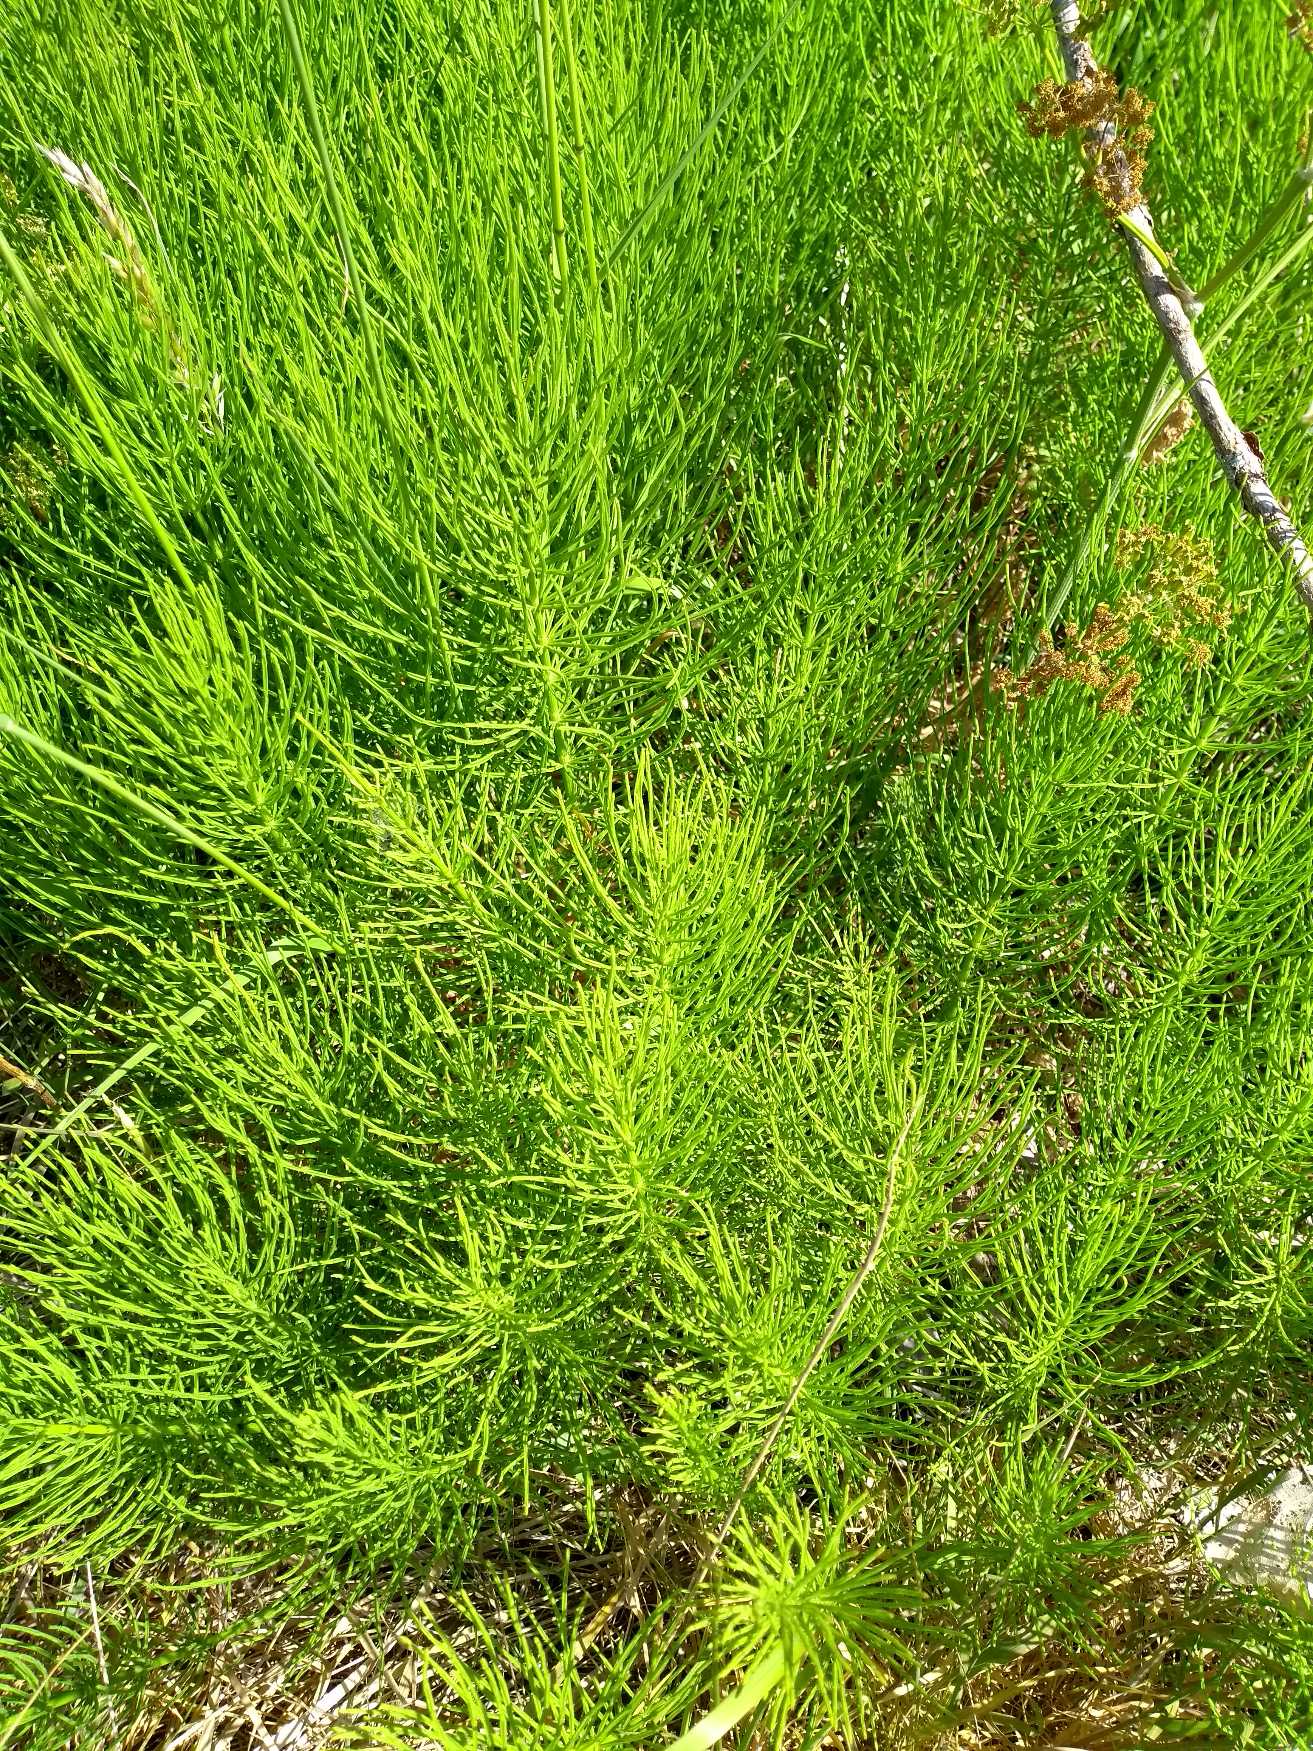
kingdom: Plantae
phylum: Tracheophyta
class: Polypodiopsida
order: Equisetales
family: Equisetaceae
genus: Equisetum
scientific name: Equisetum arvense
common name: Ager-padderok
